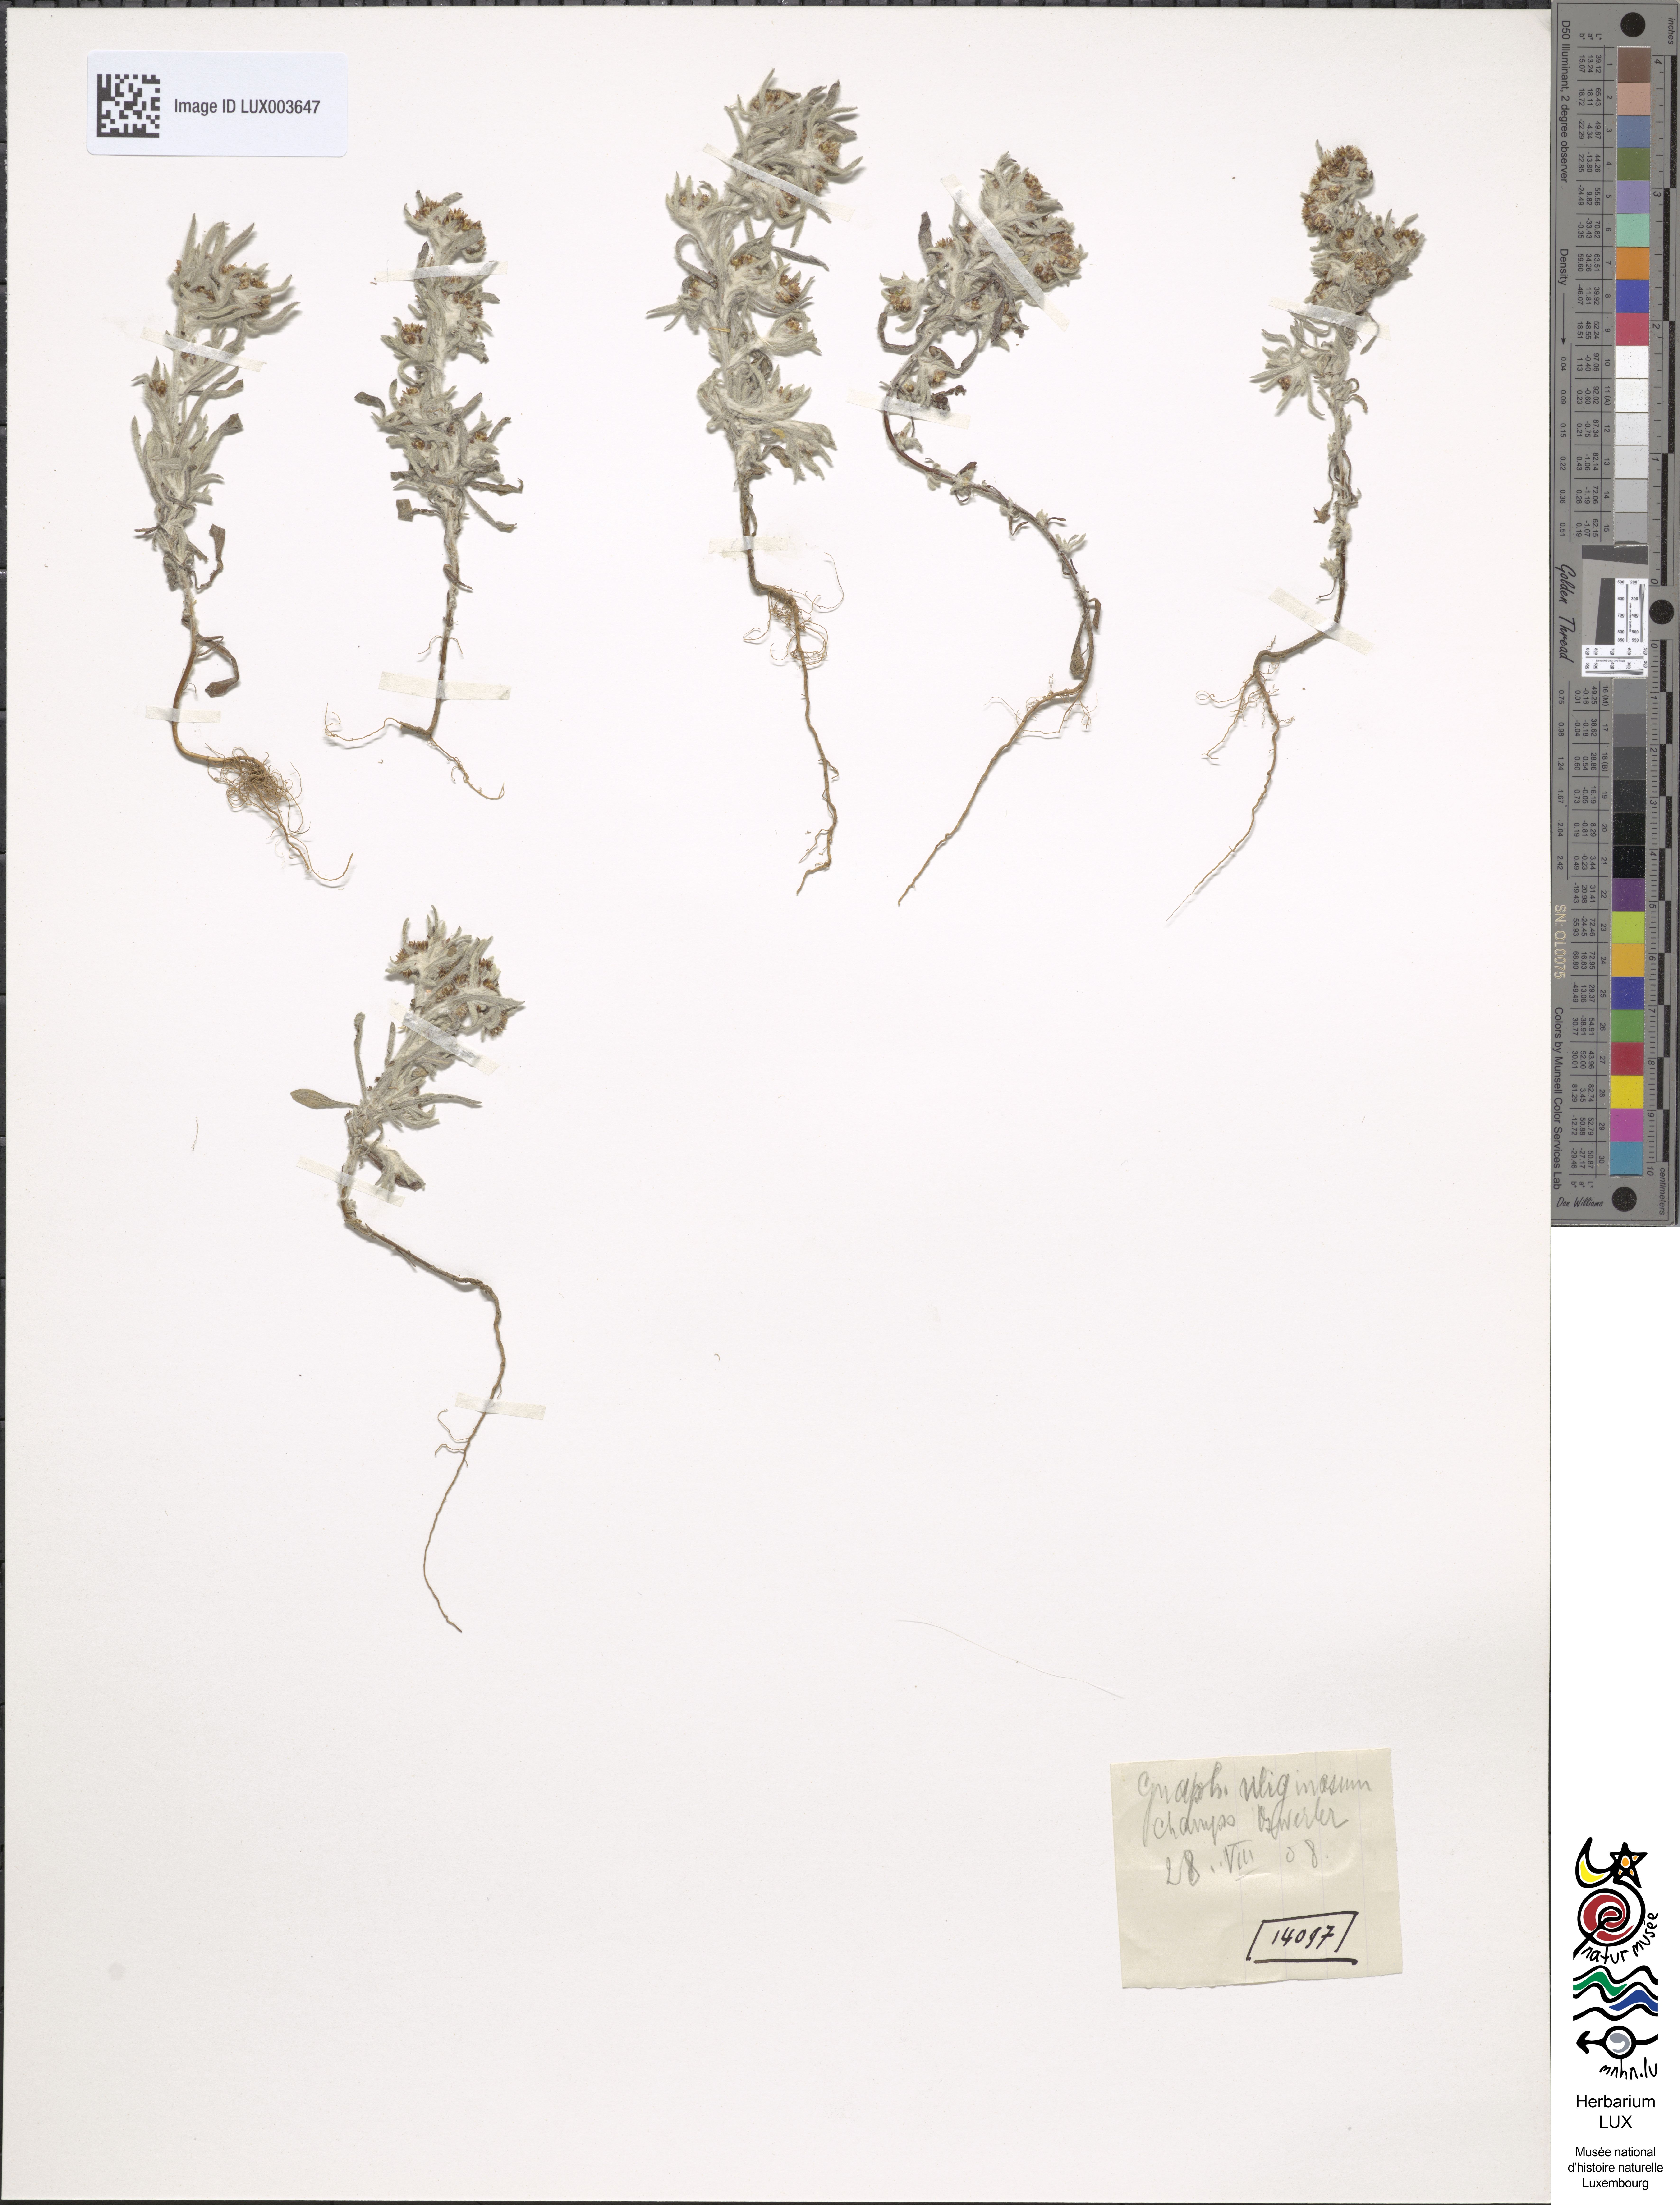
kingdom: Plantae
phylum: Tracheophyta
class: Magnoliopsida
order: Asterales
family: Asteraceae
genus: Gnaphalium
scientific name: Gnaphalium uliginosum
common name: Marsh cudweed
